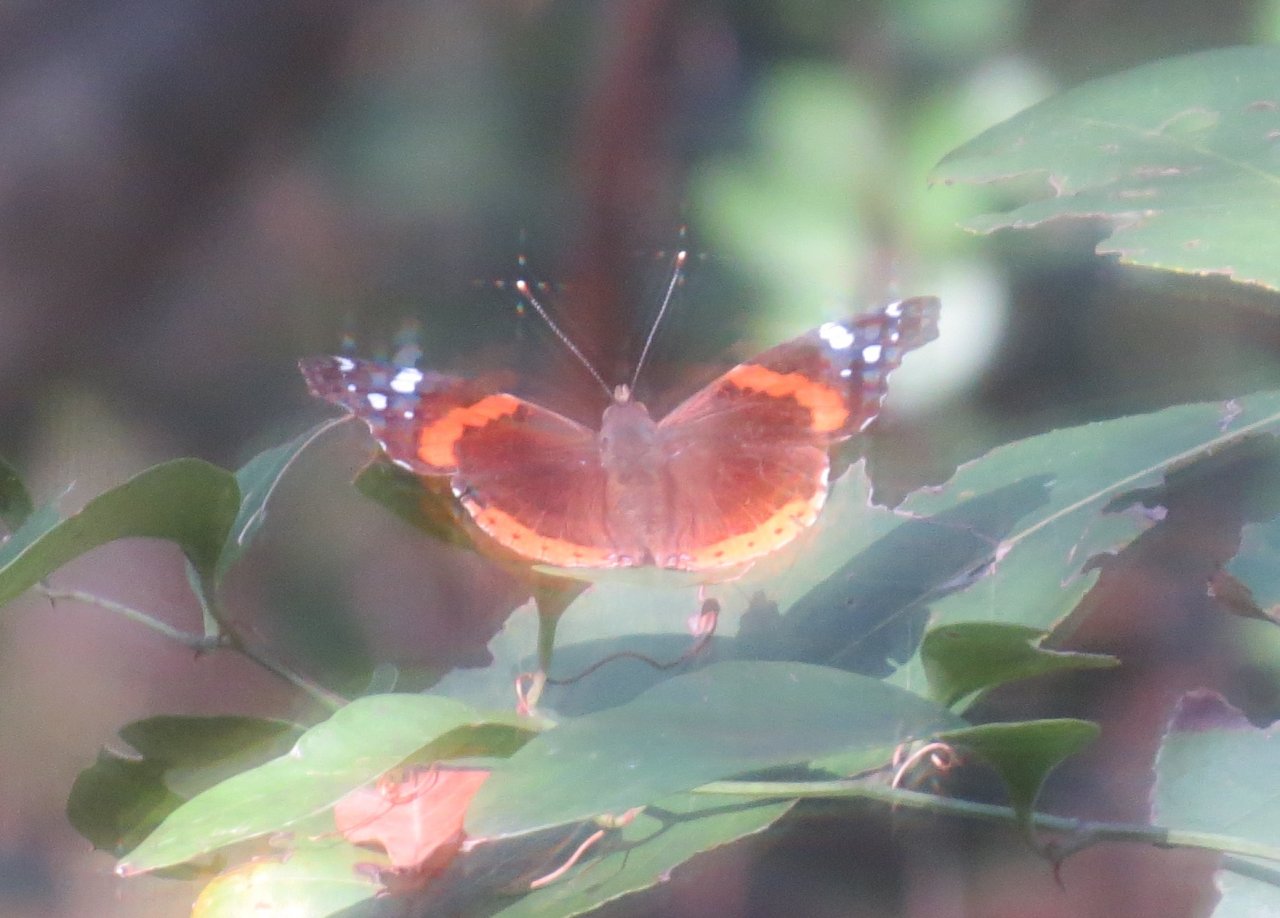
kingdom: Animalia
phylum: Arthropoda
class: Insecta
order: Lepidoptera
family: Nymphalidae
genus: Vanessa
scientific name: Vanessa atalanta
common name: Red Admiral
